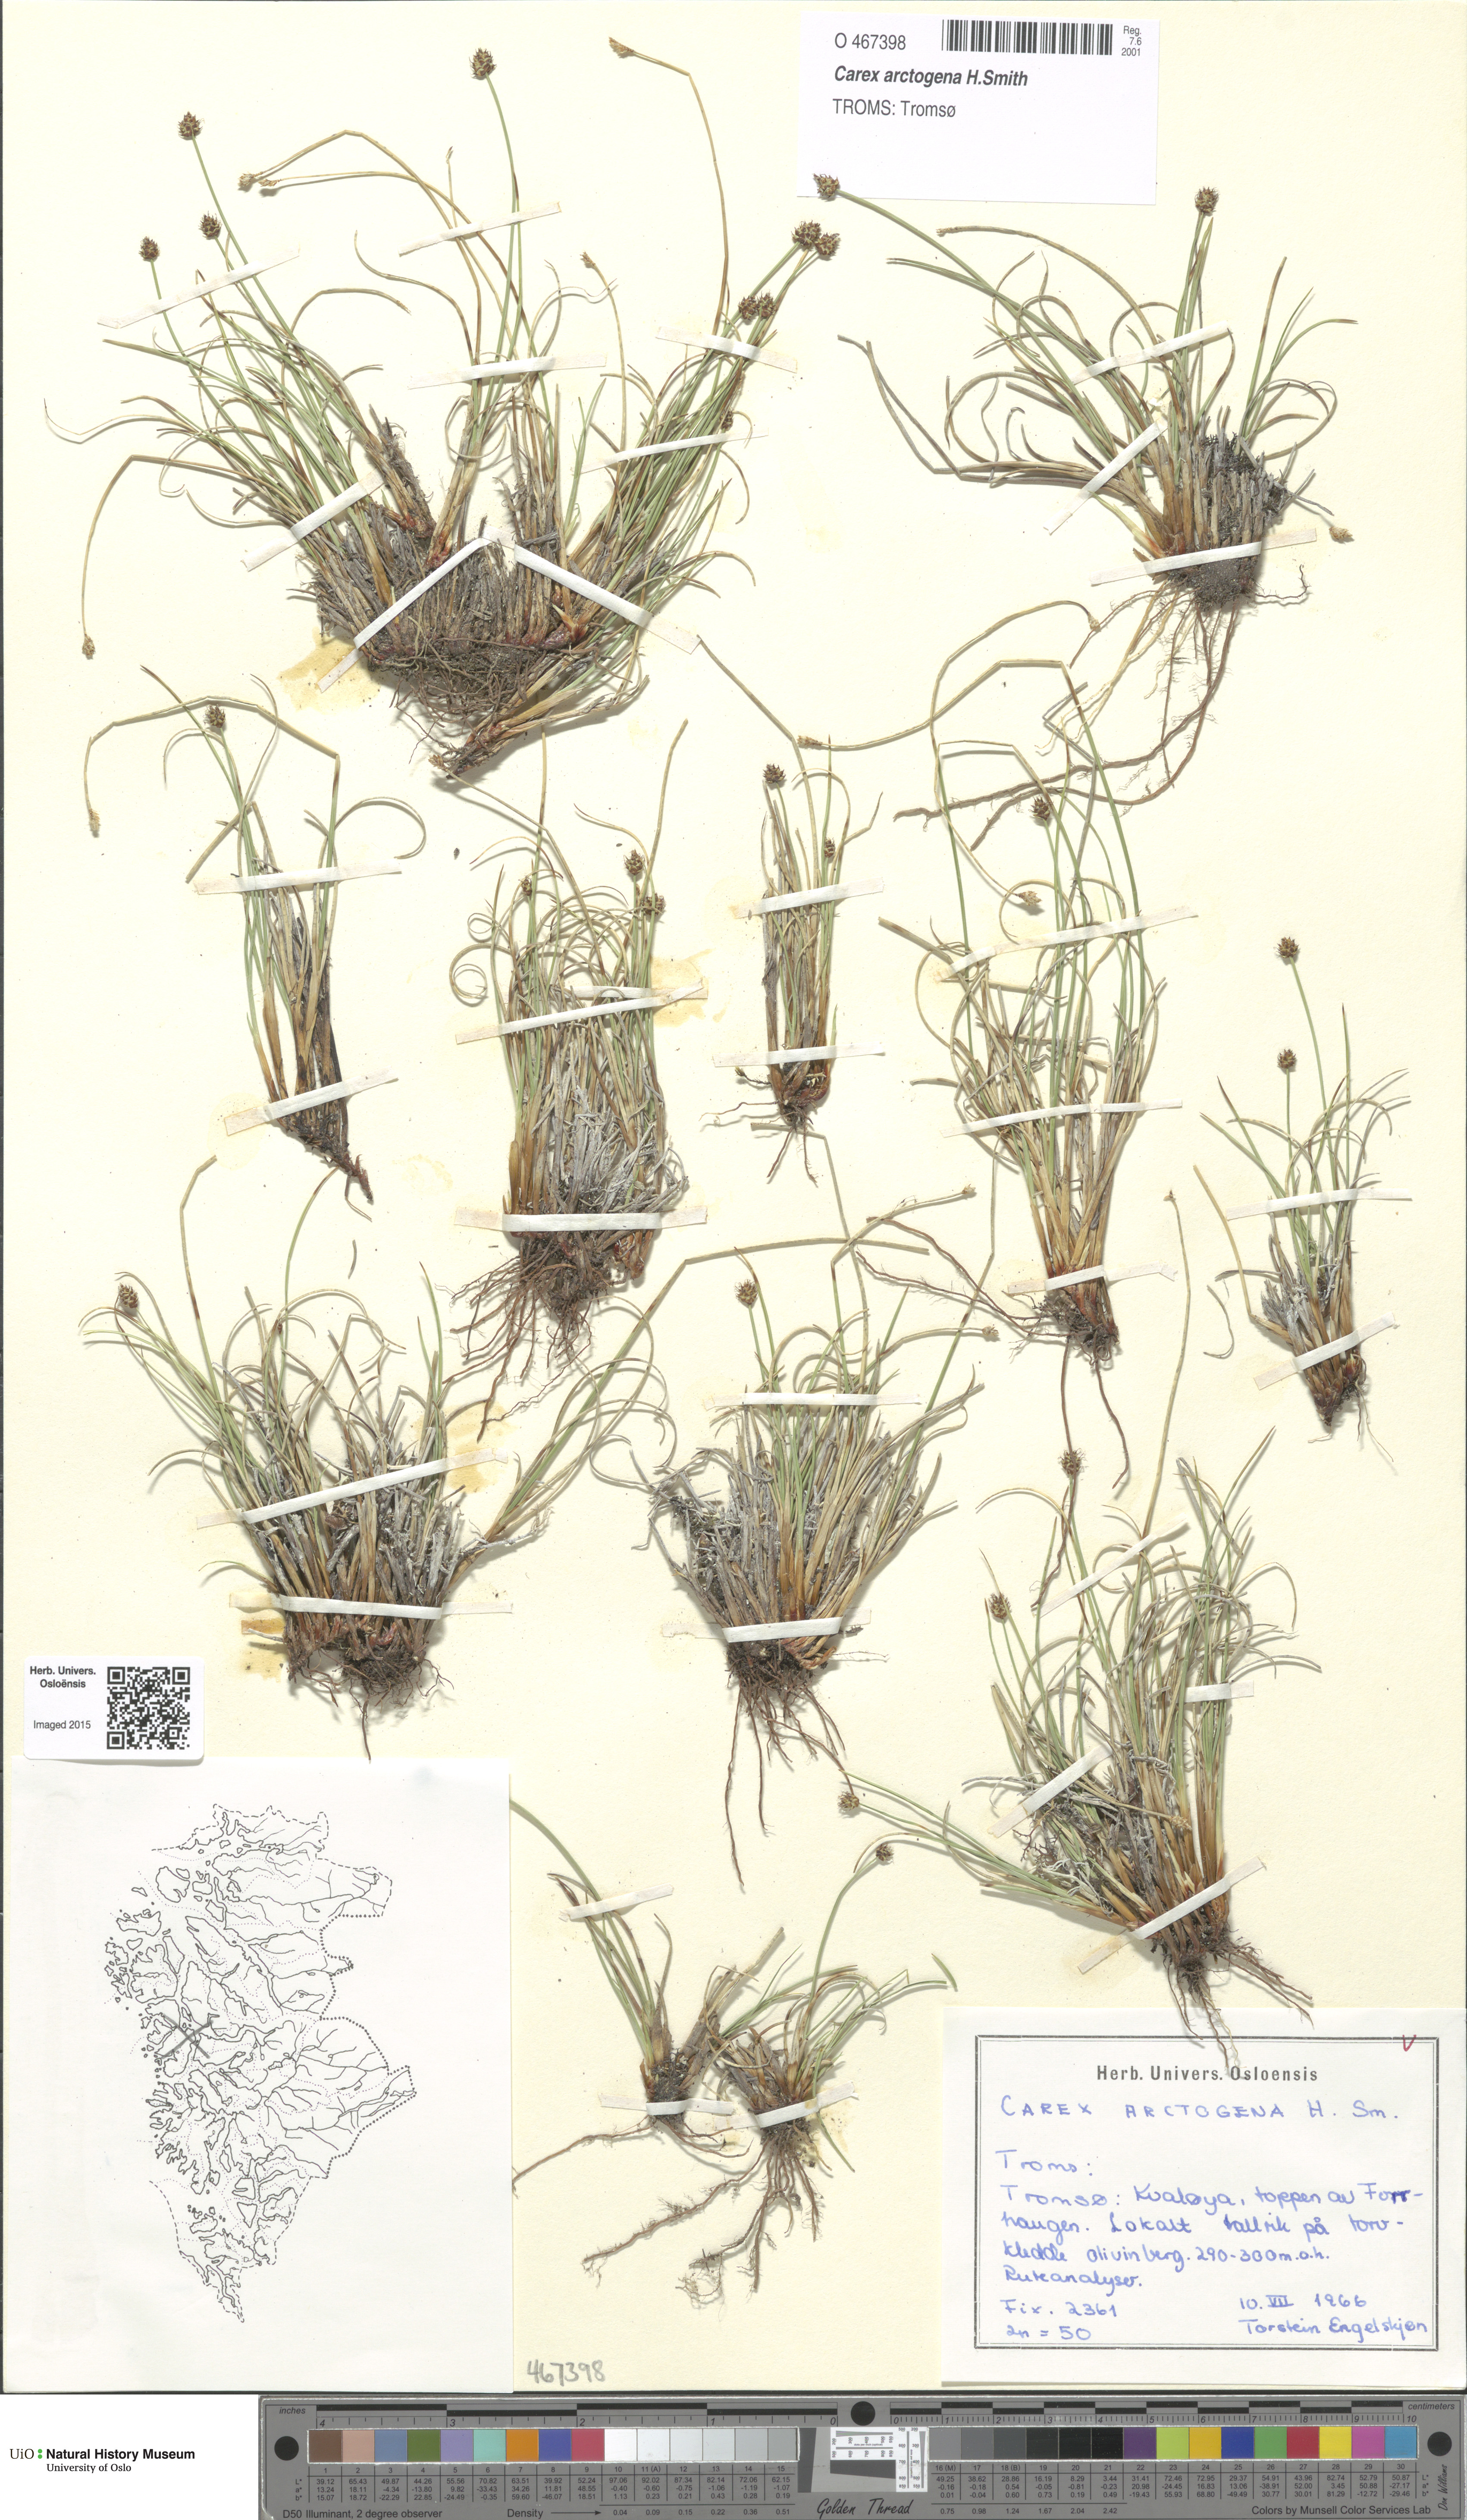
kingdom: Plantae
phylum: Tracheophyta
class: Liliopsida
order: Poales
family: Cyperaceae
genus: Carex
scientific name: Carex arctogena
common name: Black sedge
